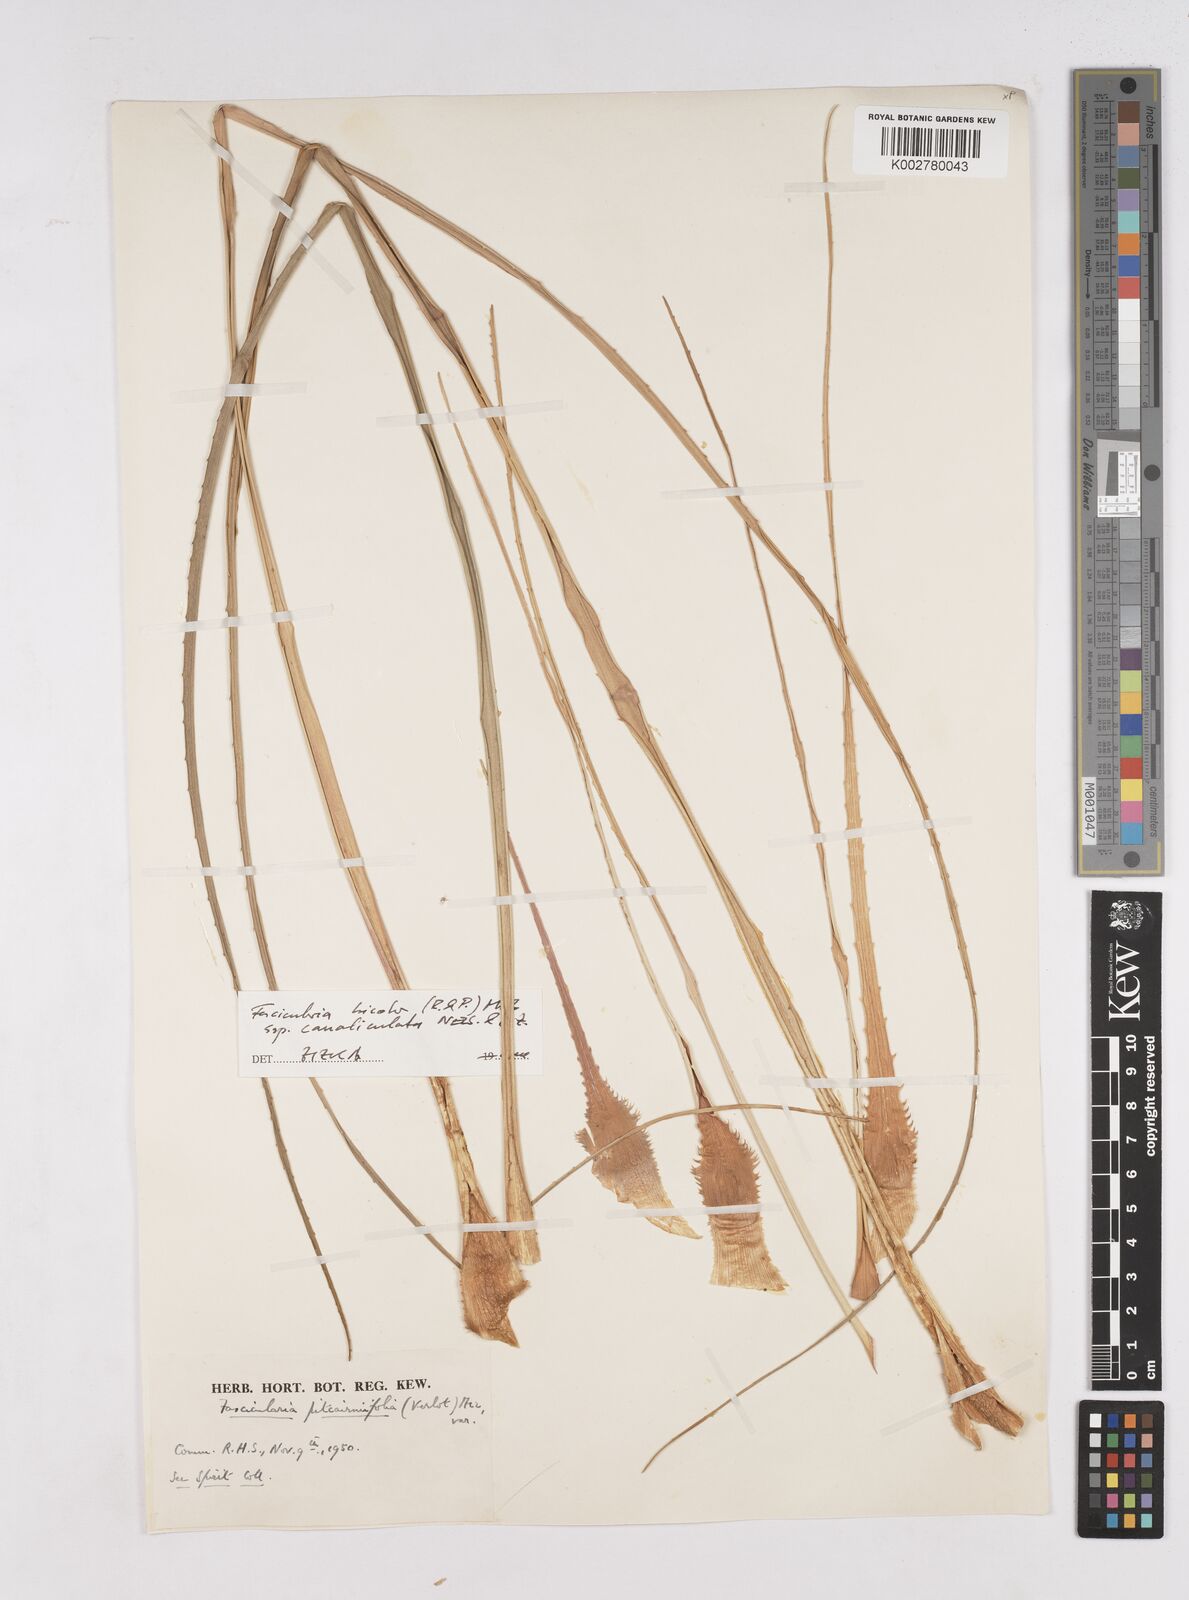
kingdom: Plantae
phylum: Tracheophyta
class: Liliopsida
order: Poales
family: Bromeliaceae
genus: Hechtia
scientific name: Hechtia pitcairniifolia
